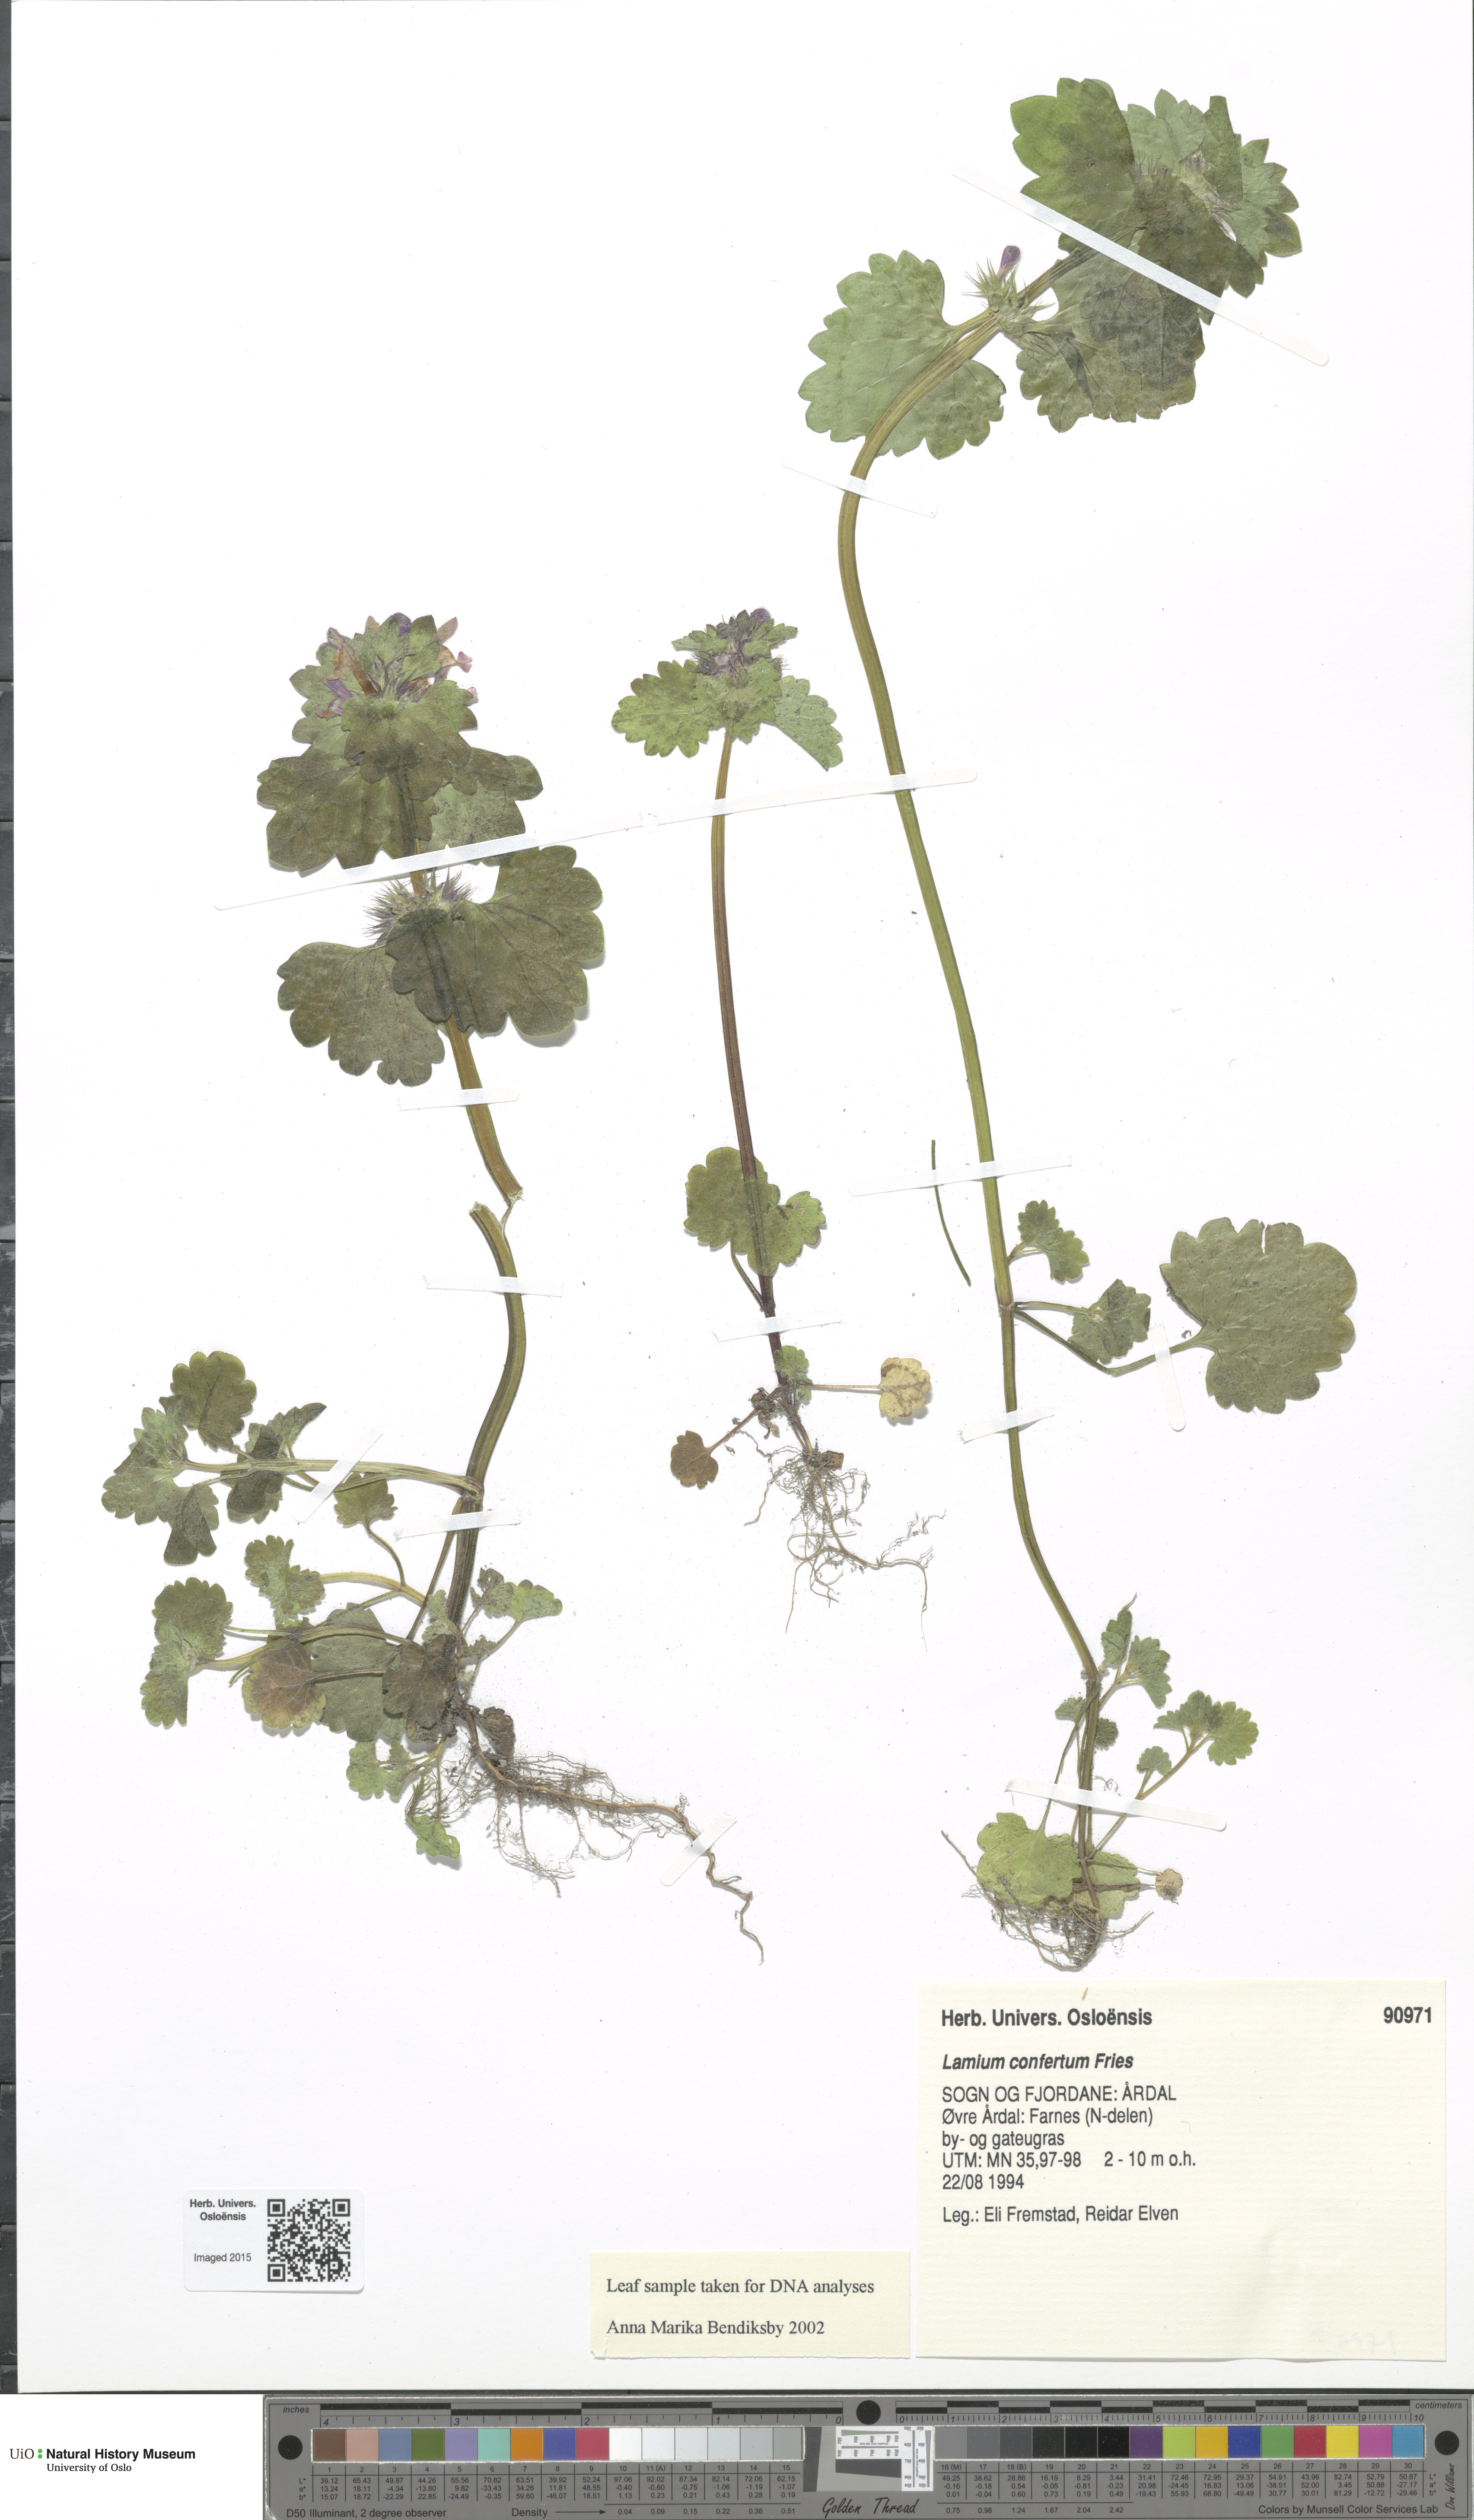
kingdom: Plantae
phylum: Tracheophyta
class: Magnoliopsida
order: Lamiales
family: Lamiaceae
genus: Lamium
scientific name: Lamium confertum
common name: Northern dead-nettle
